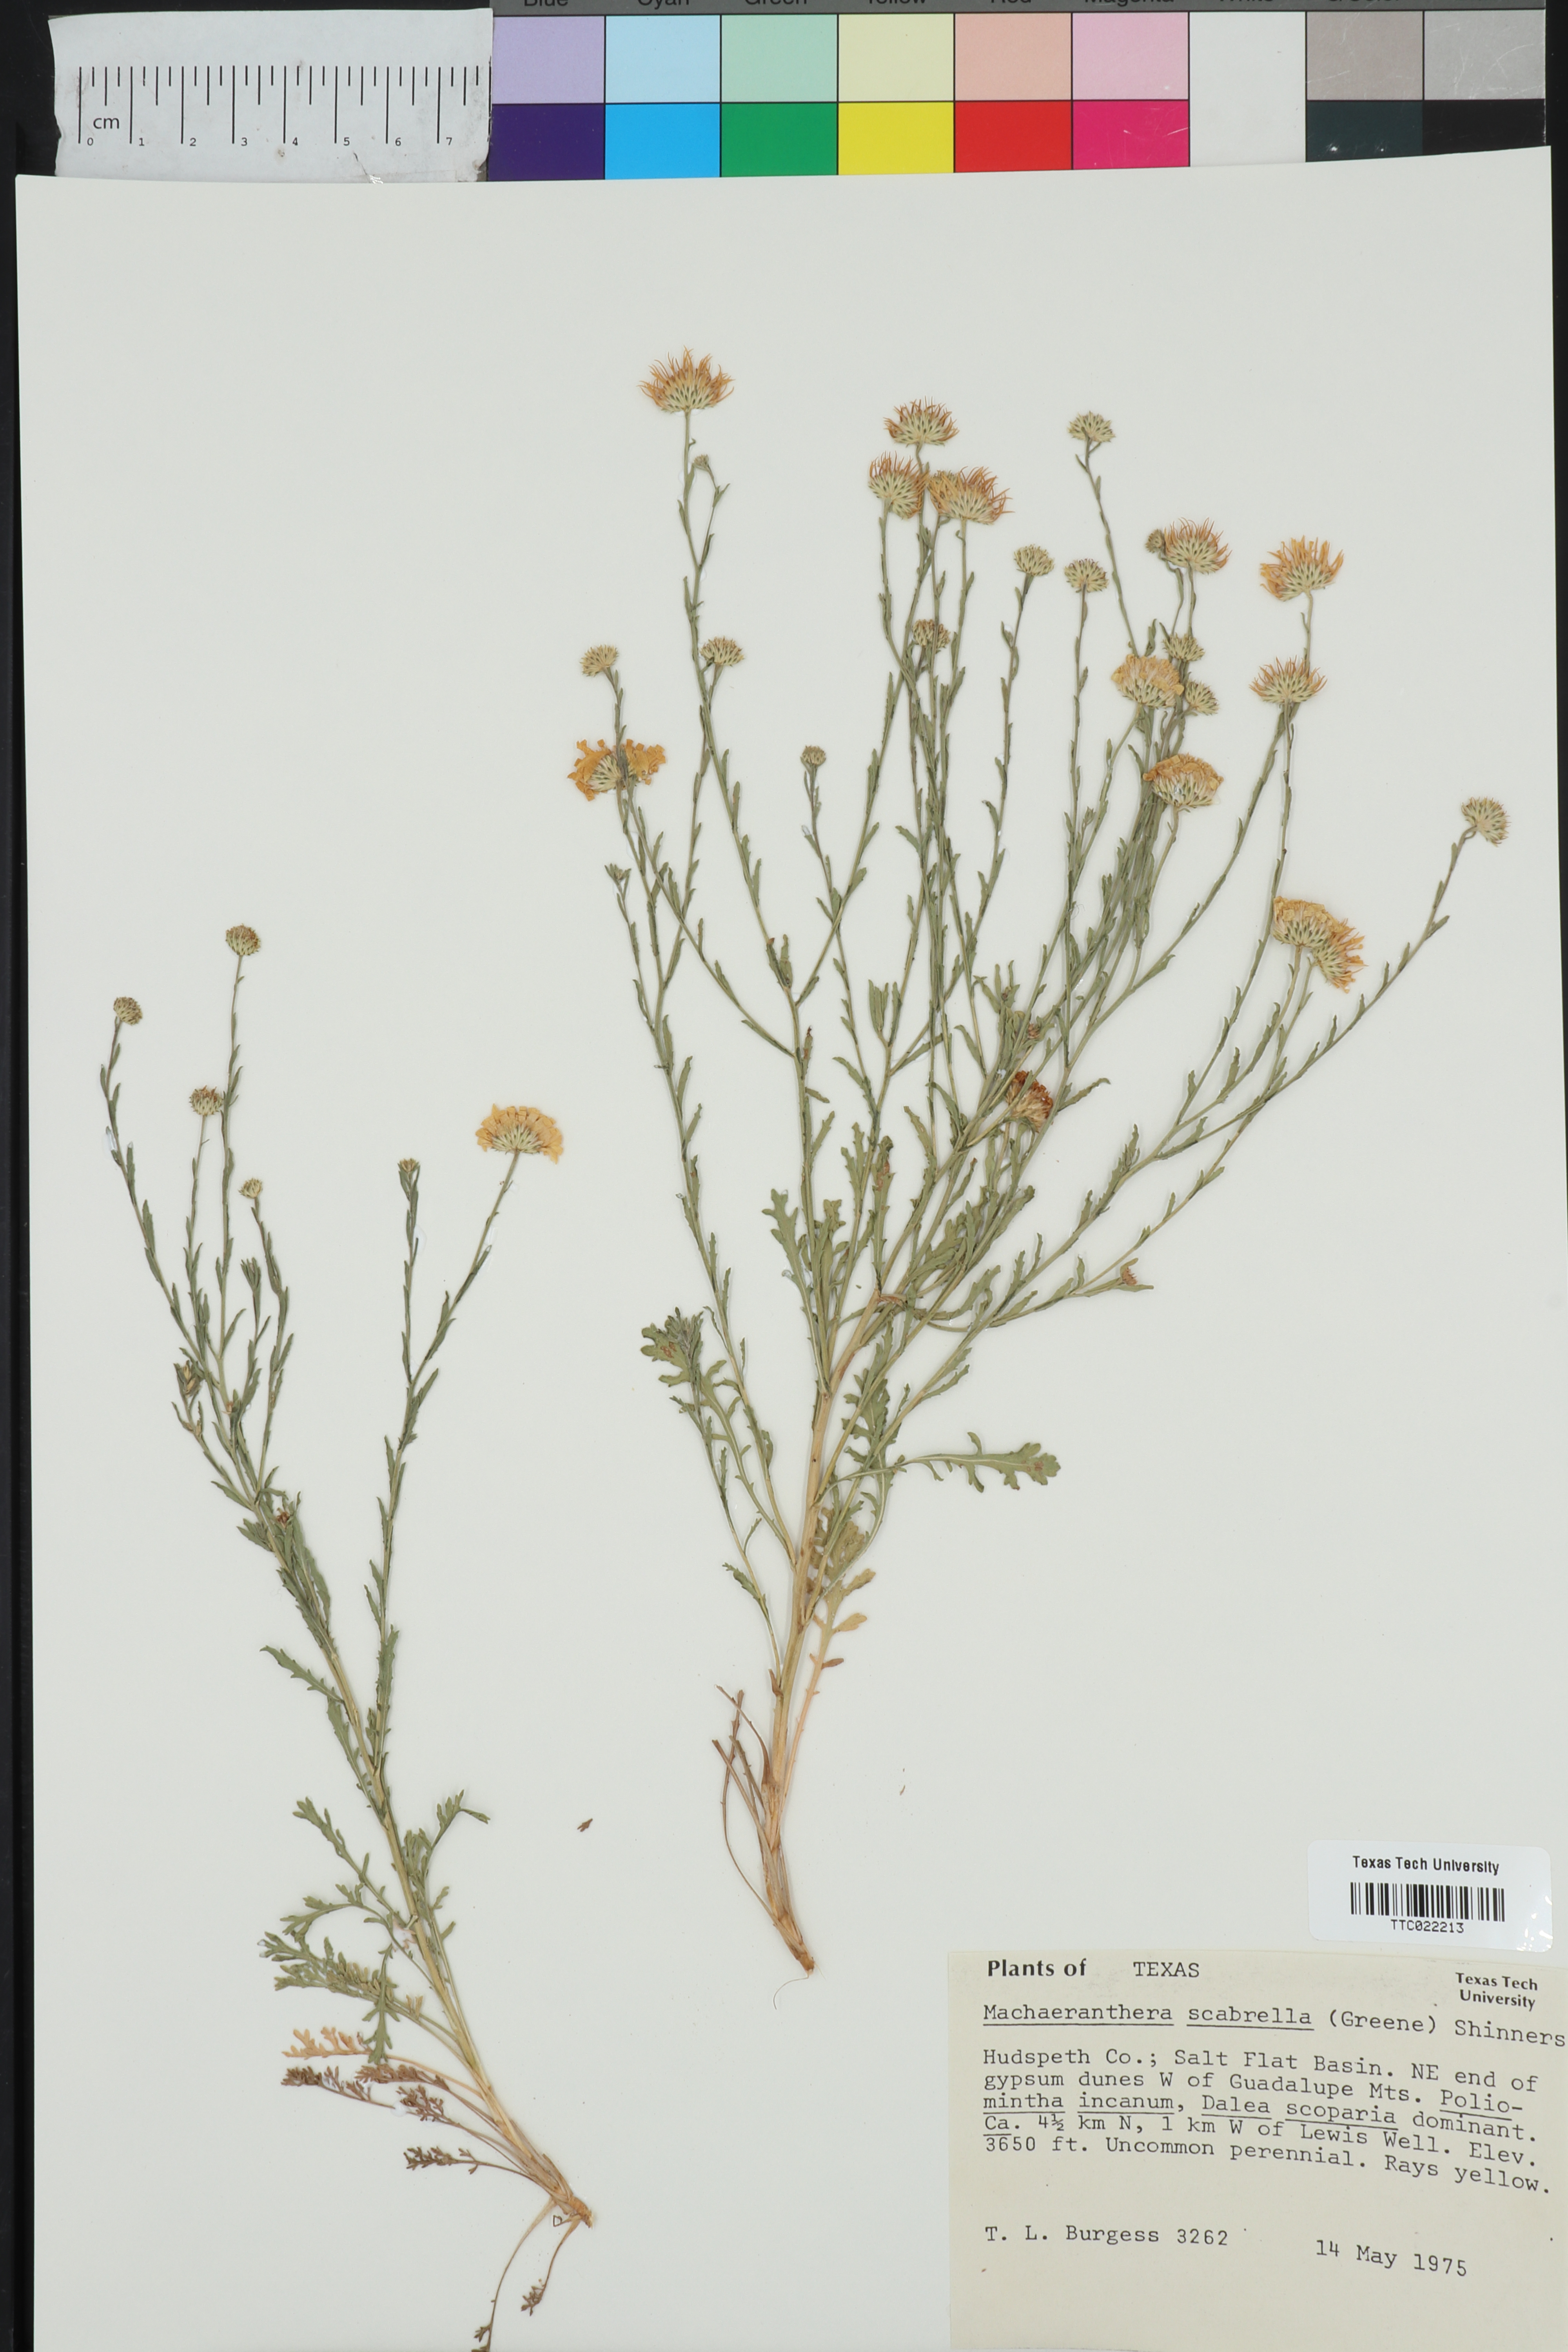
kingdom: Plantae
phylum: Tracheophyta
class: Magnoliopsida
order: Asterales
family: Asteraceae
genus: Xanthisma
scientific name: Xanthisma scabrellum
